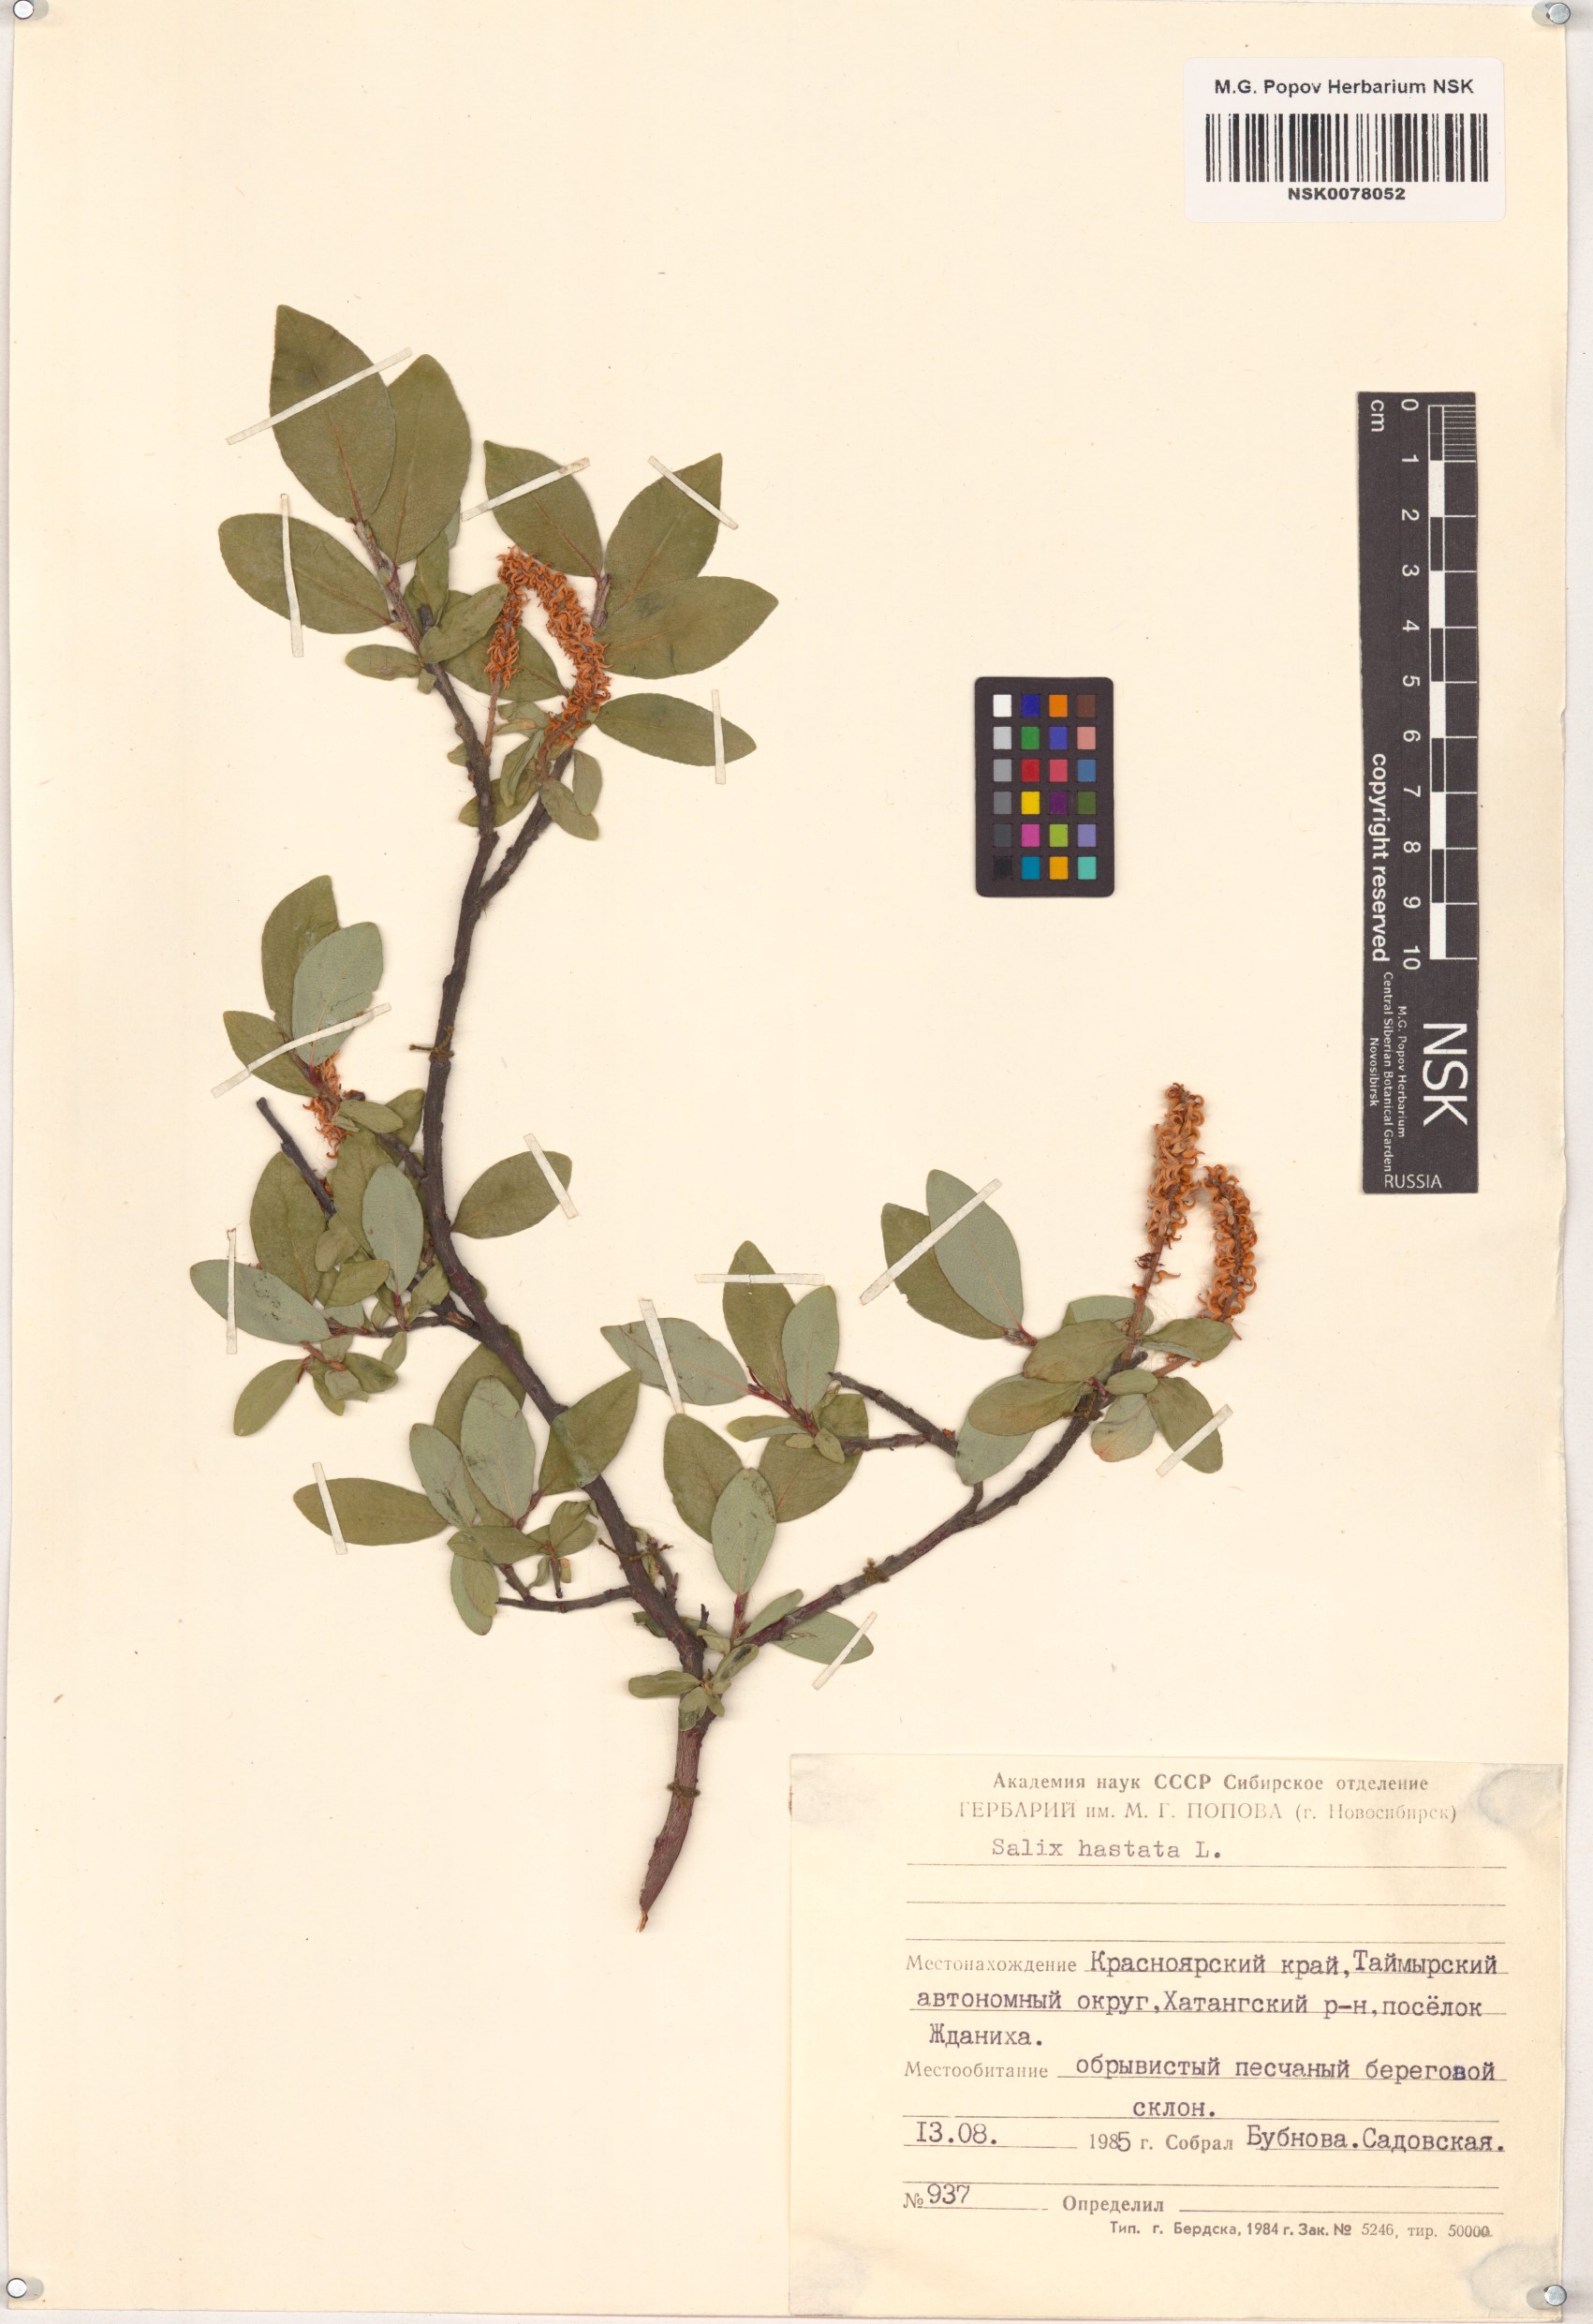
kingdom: Plantae
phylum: Tracheophyta
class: Magnoliopsida
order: Malpighiales
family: Salicaceae
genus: Salix
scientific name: Salix hastata
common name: Halberd willow
